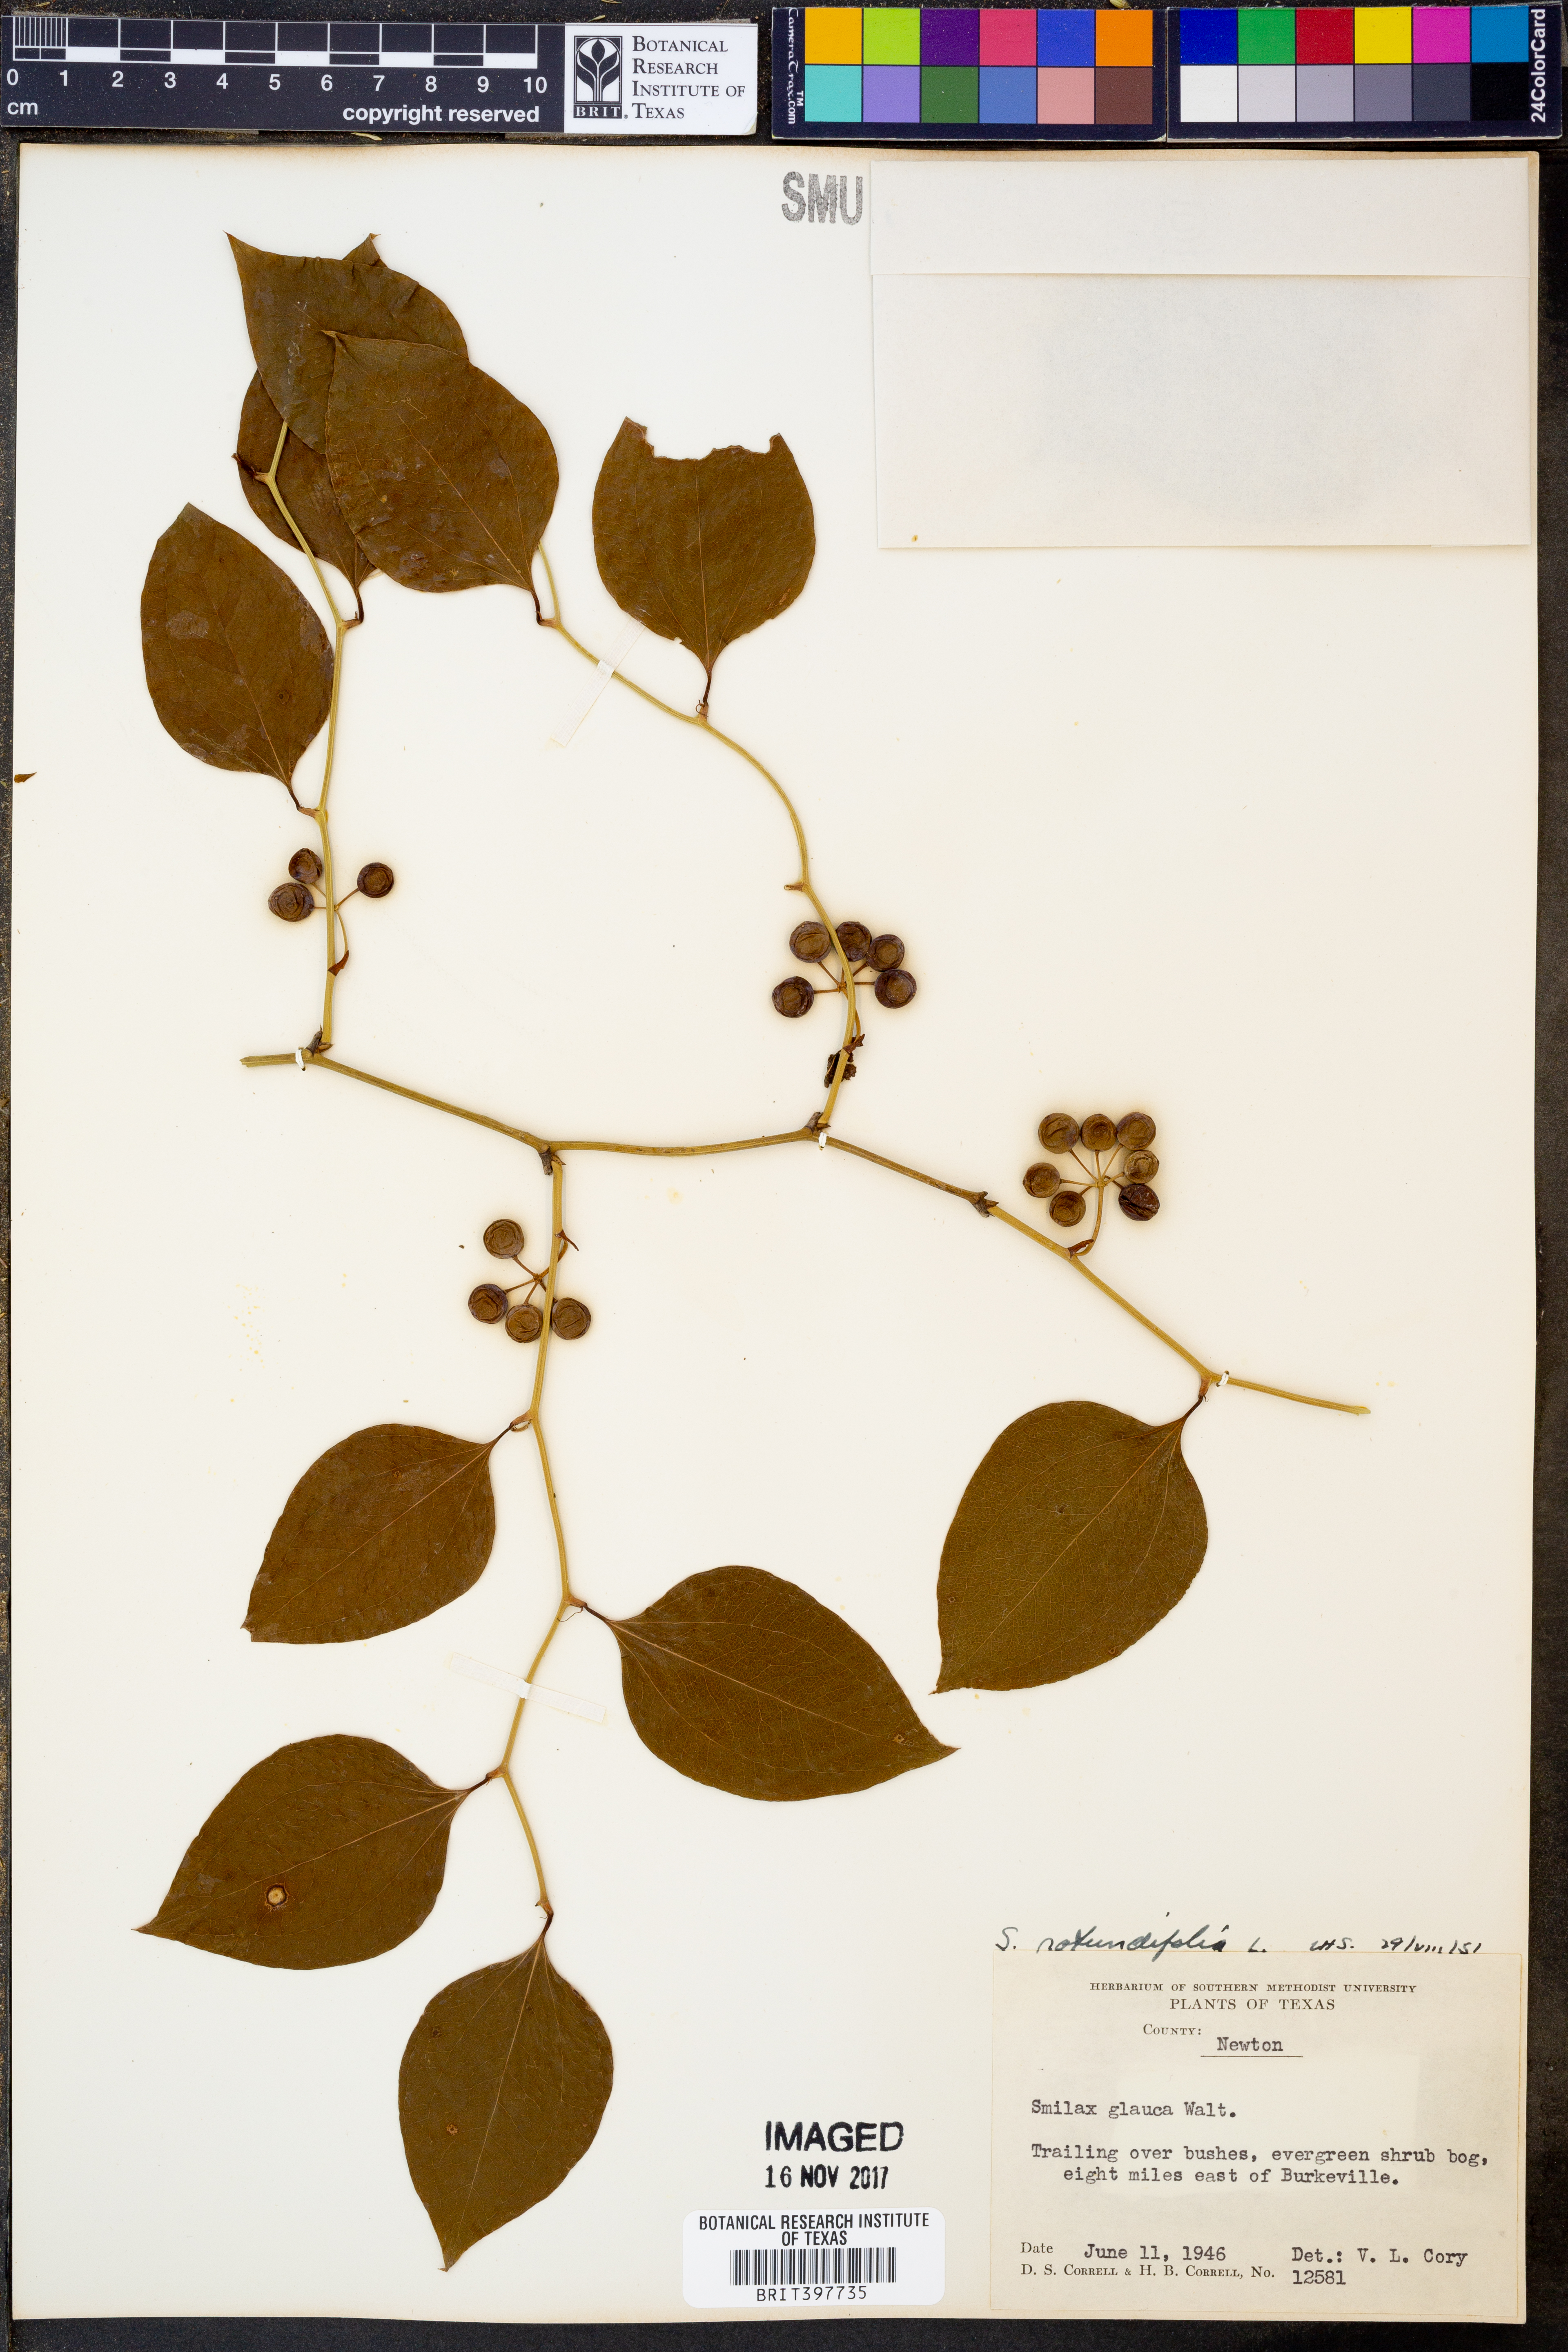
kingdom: Plantae
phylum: Tracheophyta
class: Liliopsida
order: Liliales
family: Smilacaceae
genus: Smilax
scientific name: Smilax rotundifolia
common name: Bullbriar
